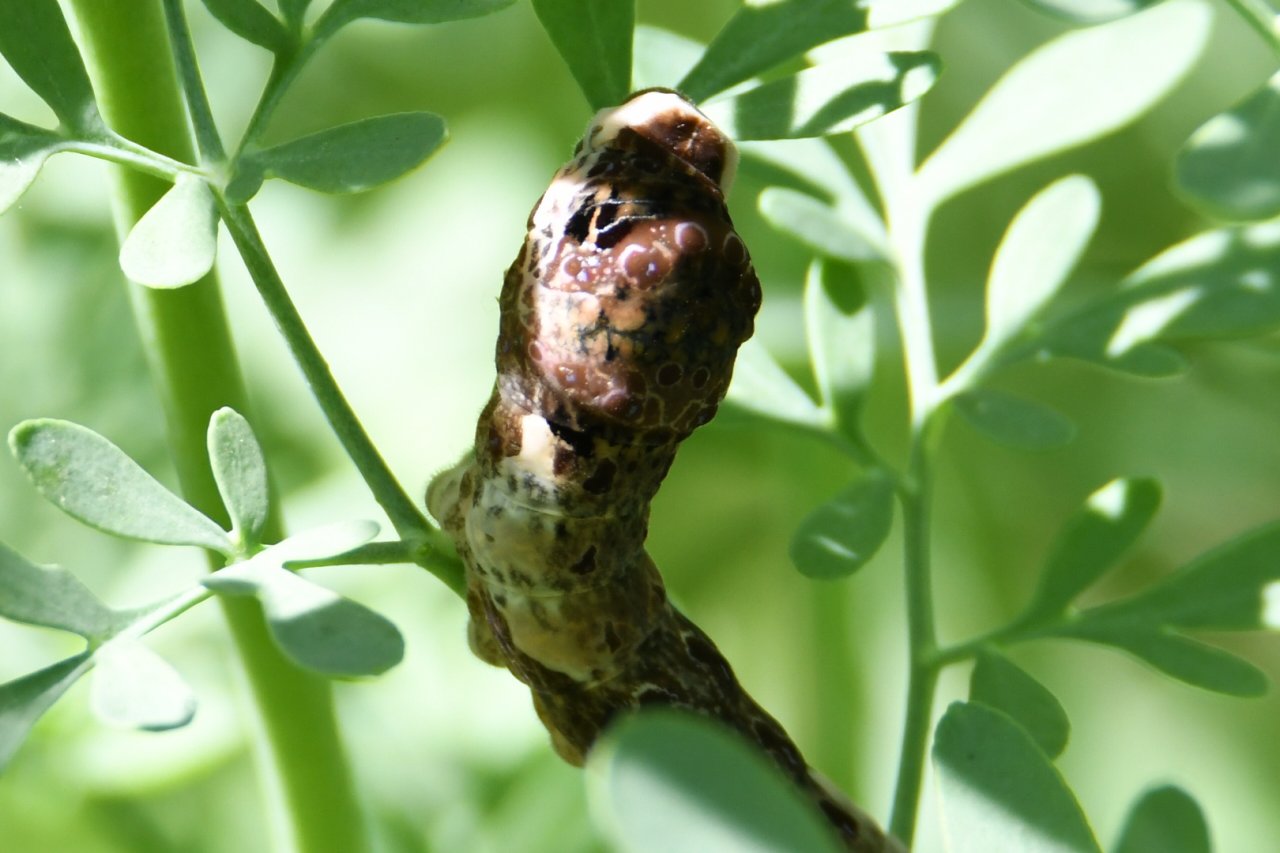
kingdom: Animalia
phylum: Arthropoda
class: Insecta
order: Lepidoptera
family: Papilionidae
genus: Papilio
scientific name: Papilio cresphontes
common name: Eastern Giant Swallowtail
